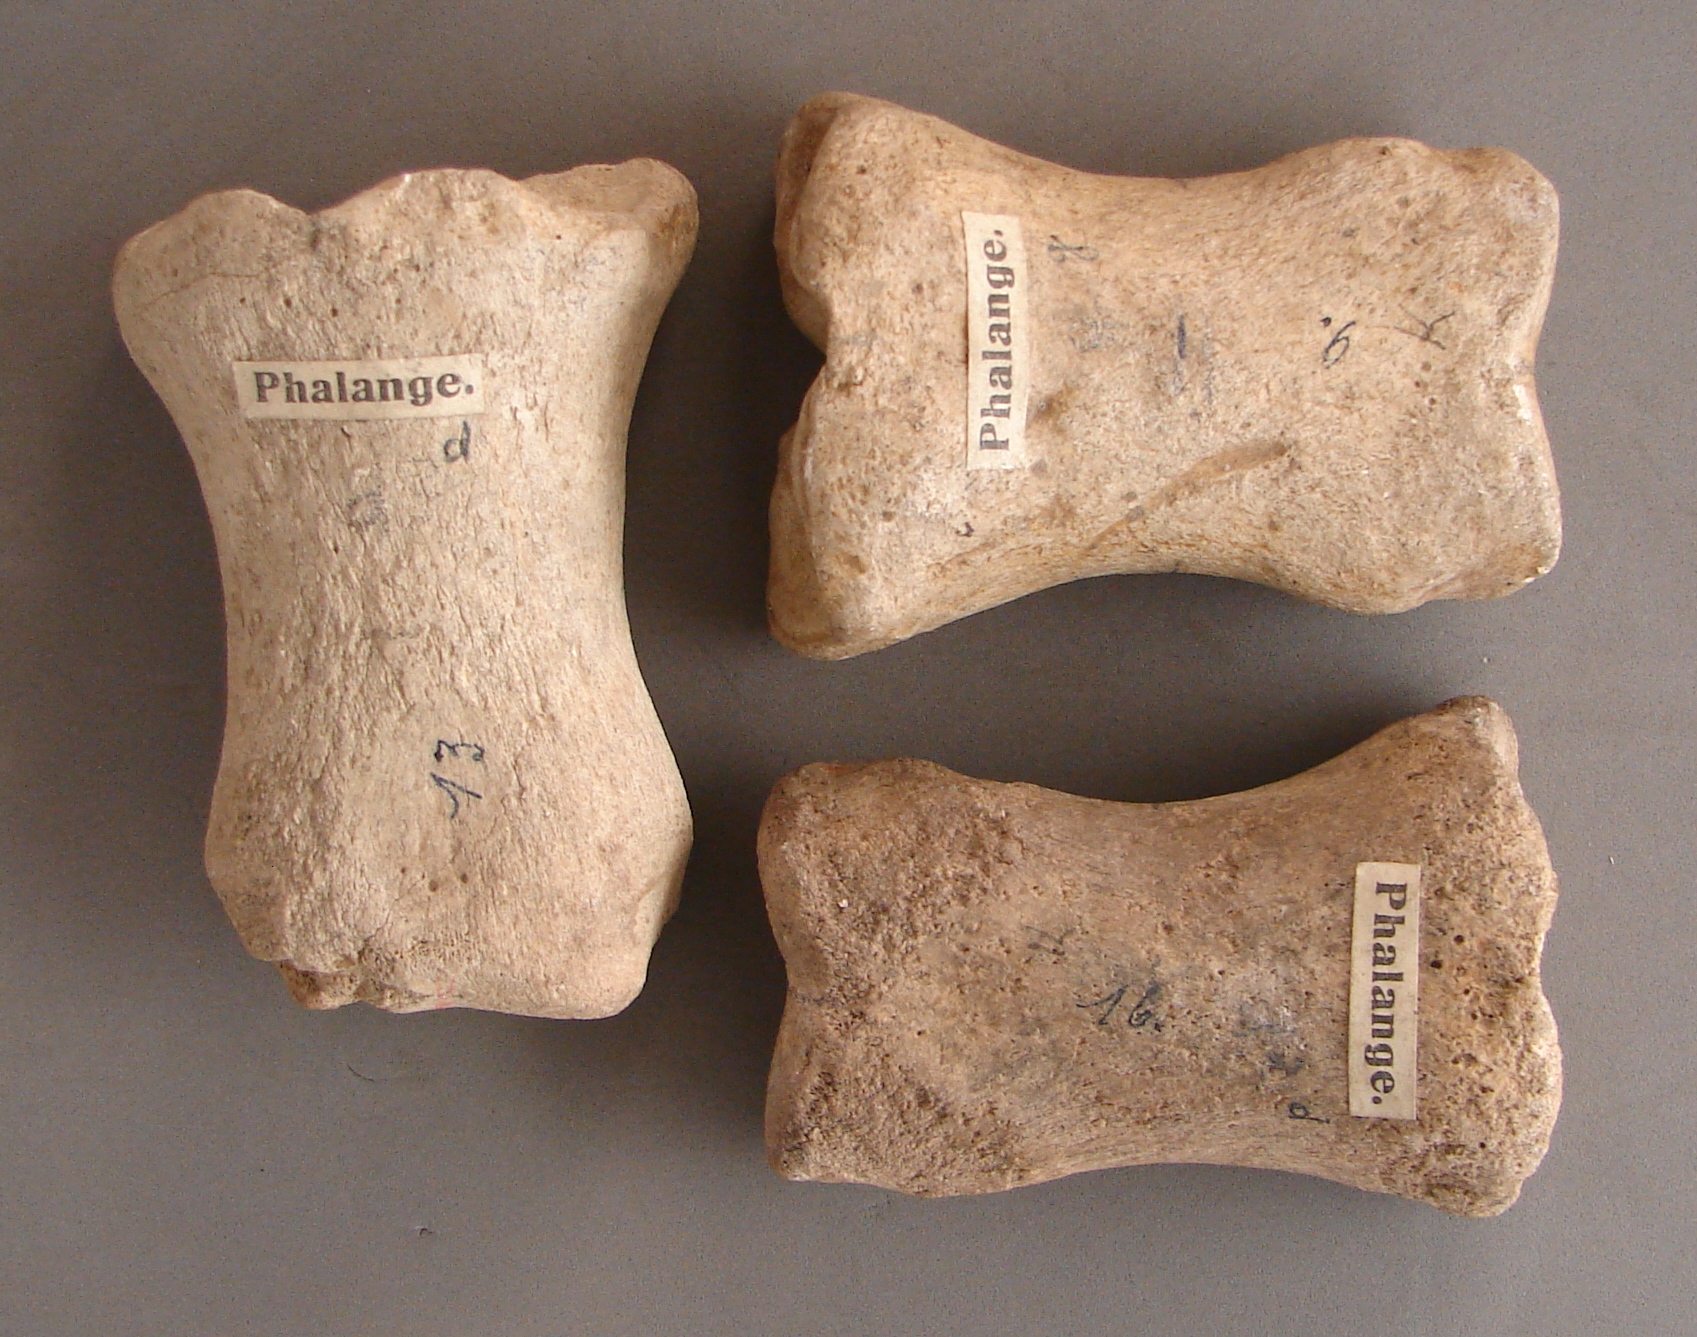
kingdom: Animalia
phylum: Chordata
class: Mammalia
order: Perissodactyla
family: Equidae
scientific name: Equidae
